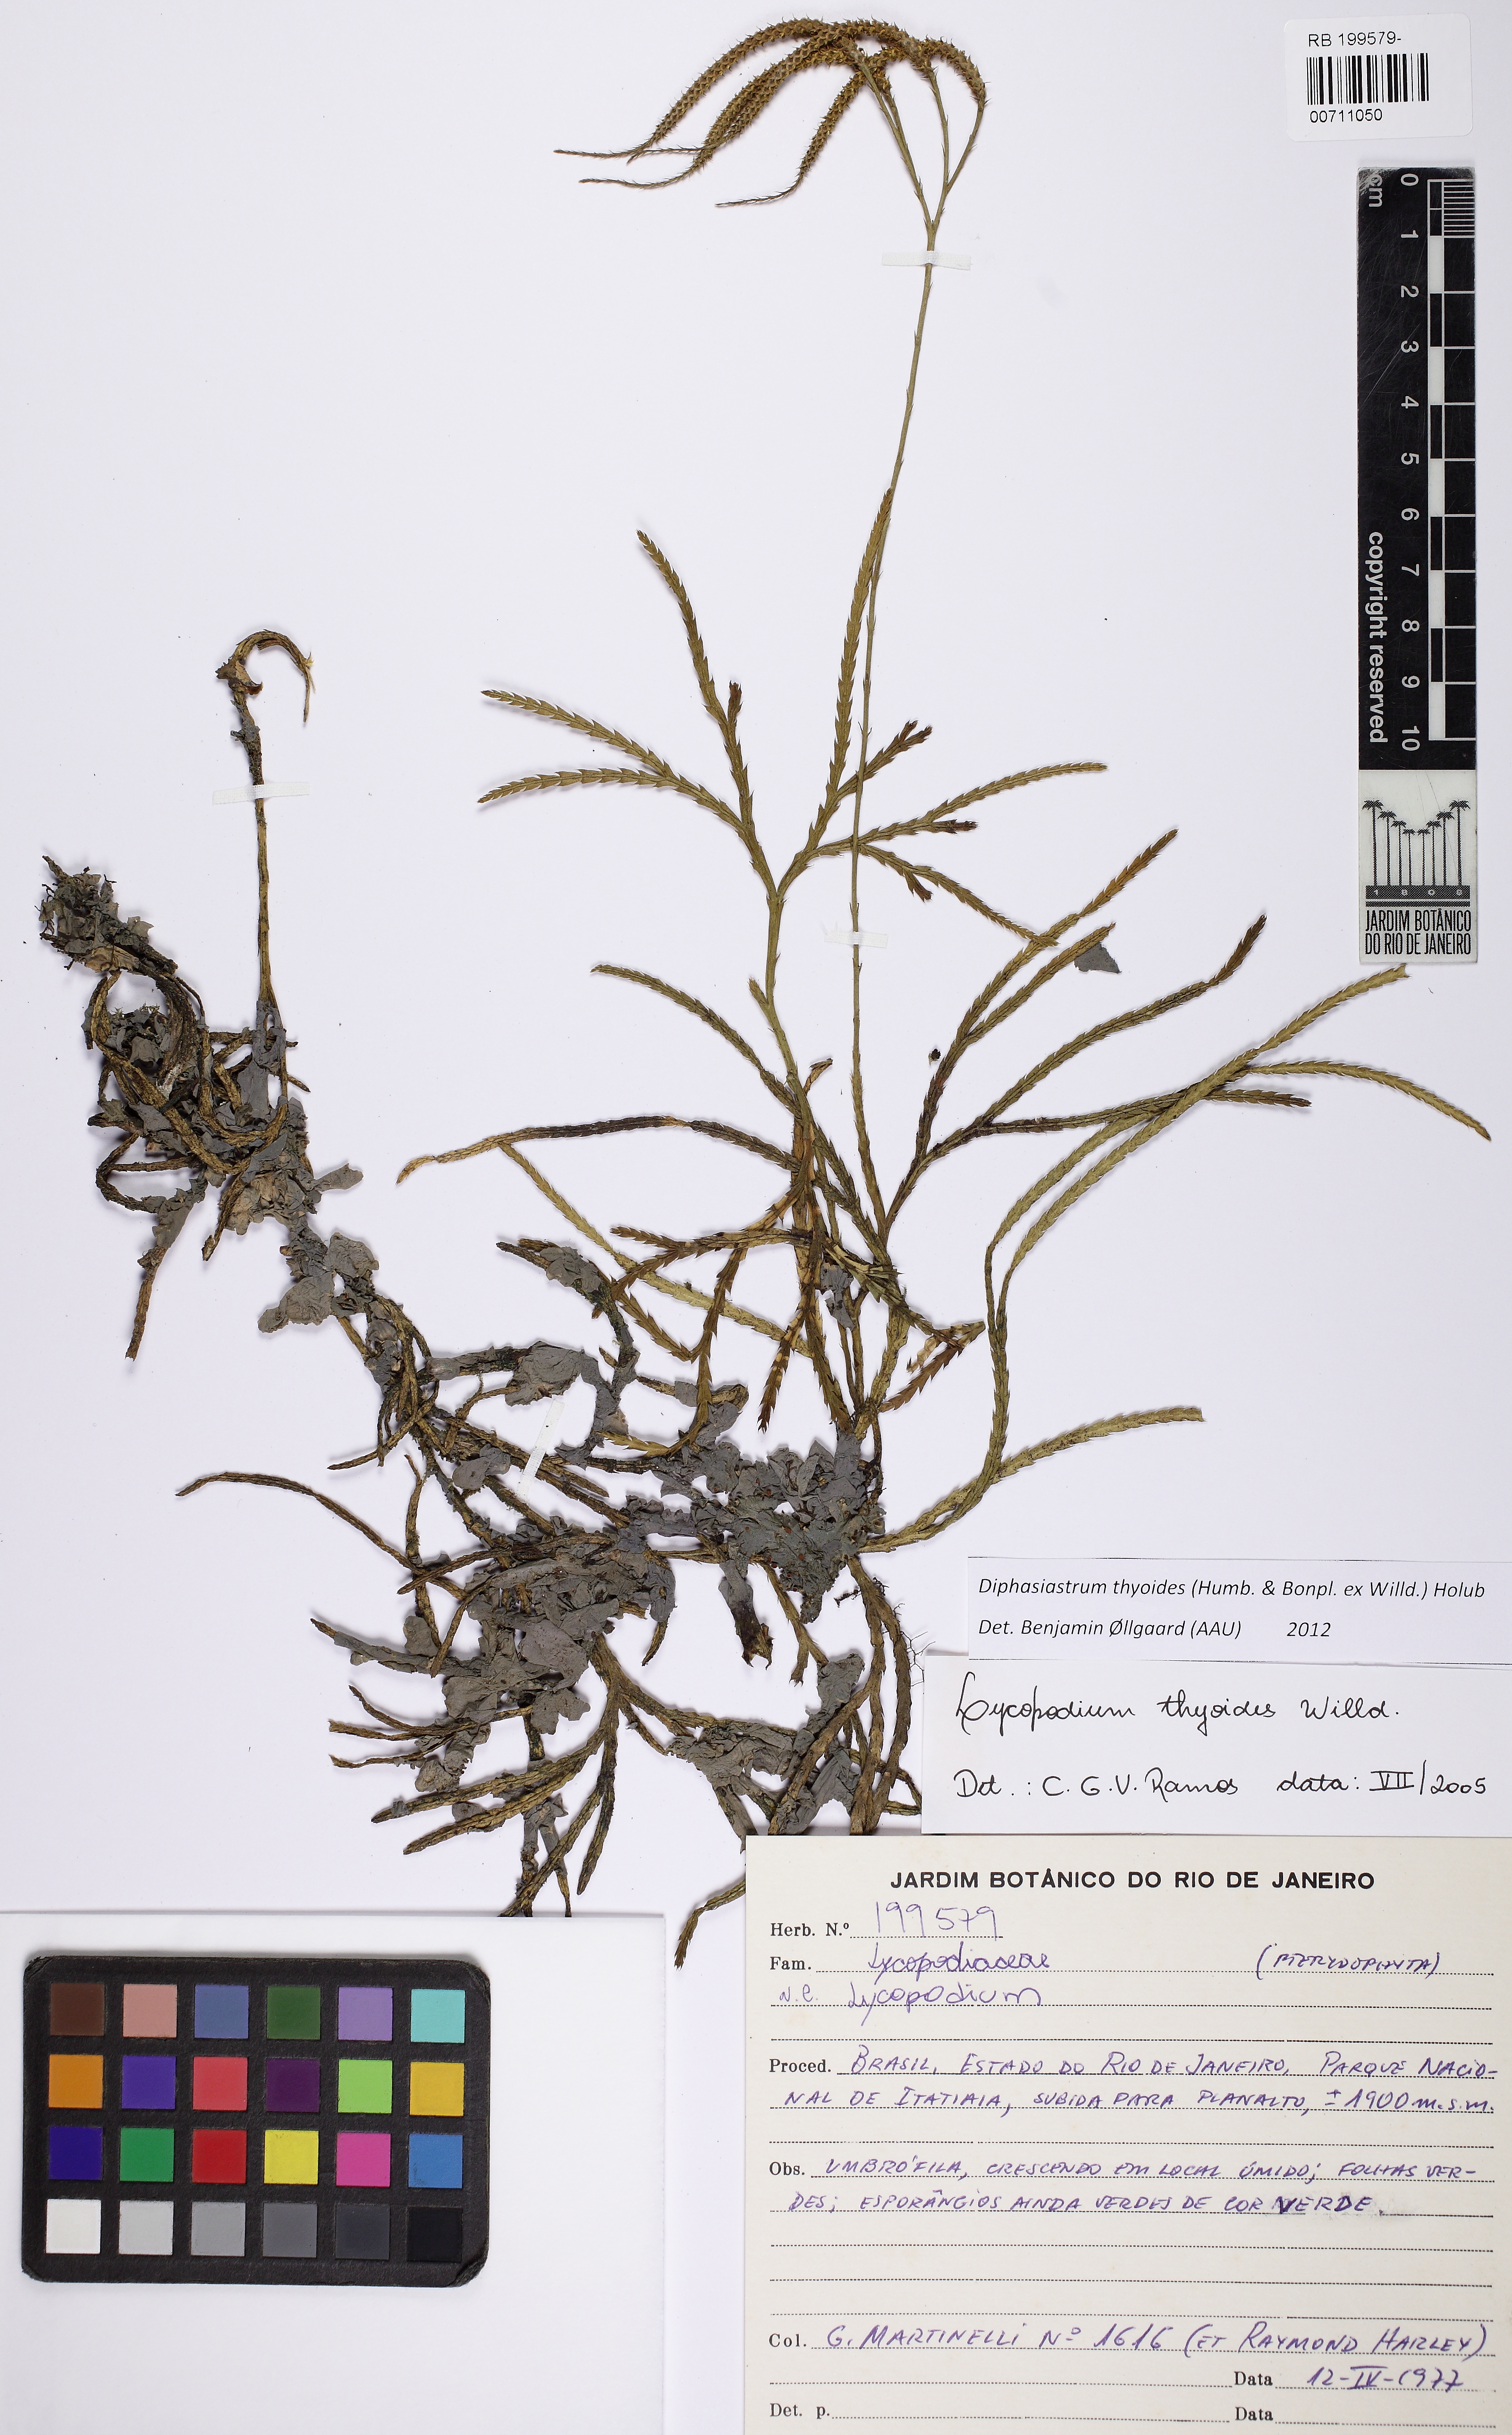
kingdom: Plantae
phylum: Tracheophyta
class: Lycopodiopsida
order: Lycopodiales
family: Lycopodiaceae
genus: Diphasiastrum
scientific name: Diphasiastrum thyoides
